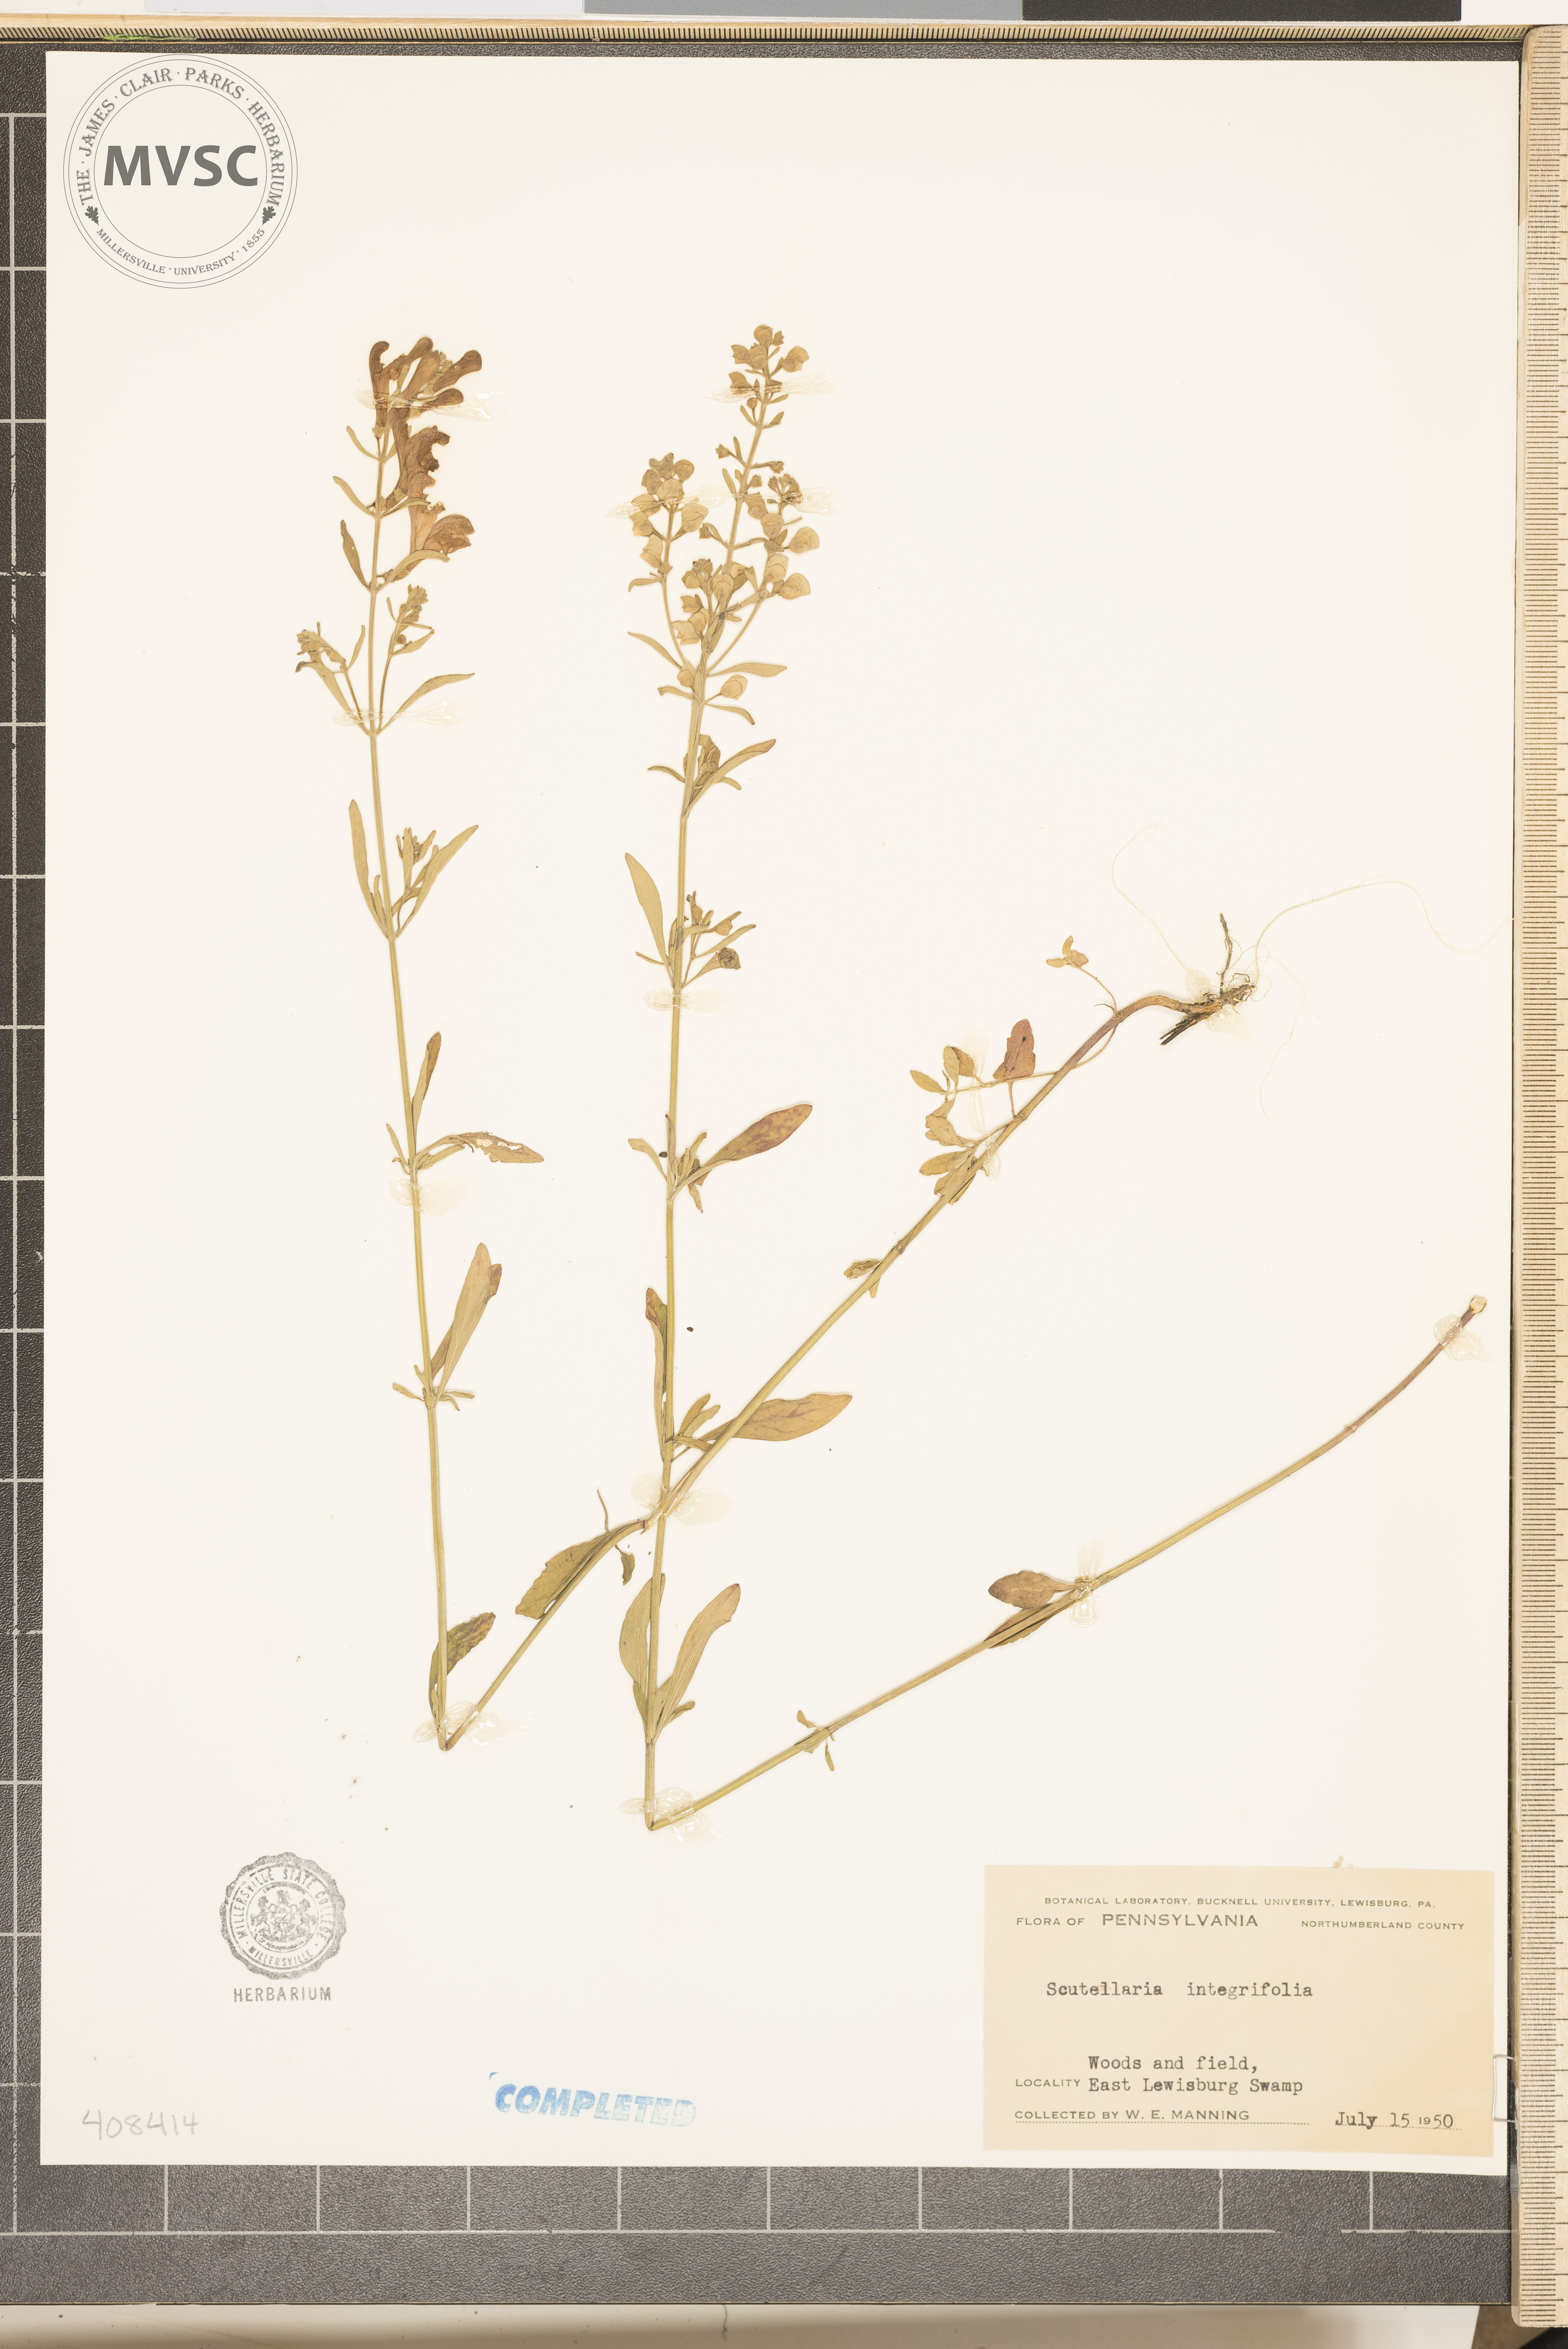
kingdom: Plantae
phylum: Tracheophyta
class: Magnoliopsida
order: Lamiales
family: Lamiaceae
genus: Scutellaria
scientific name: Scutellaria integrifolia
